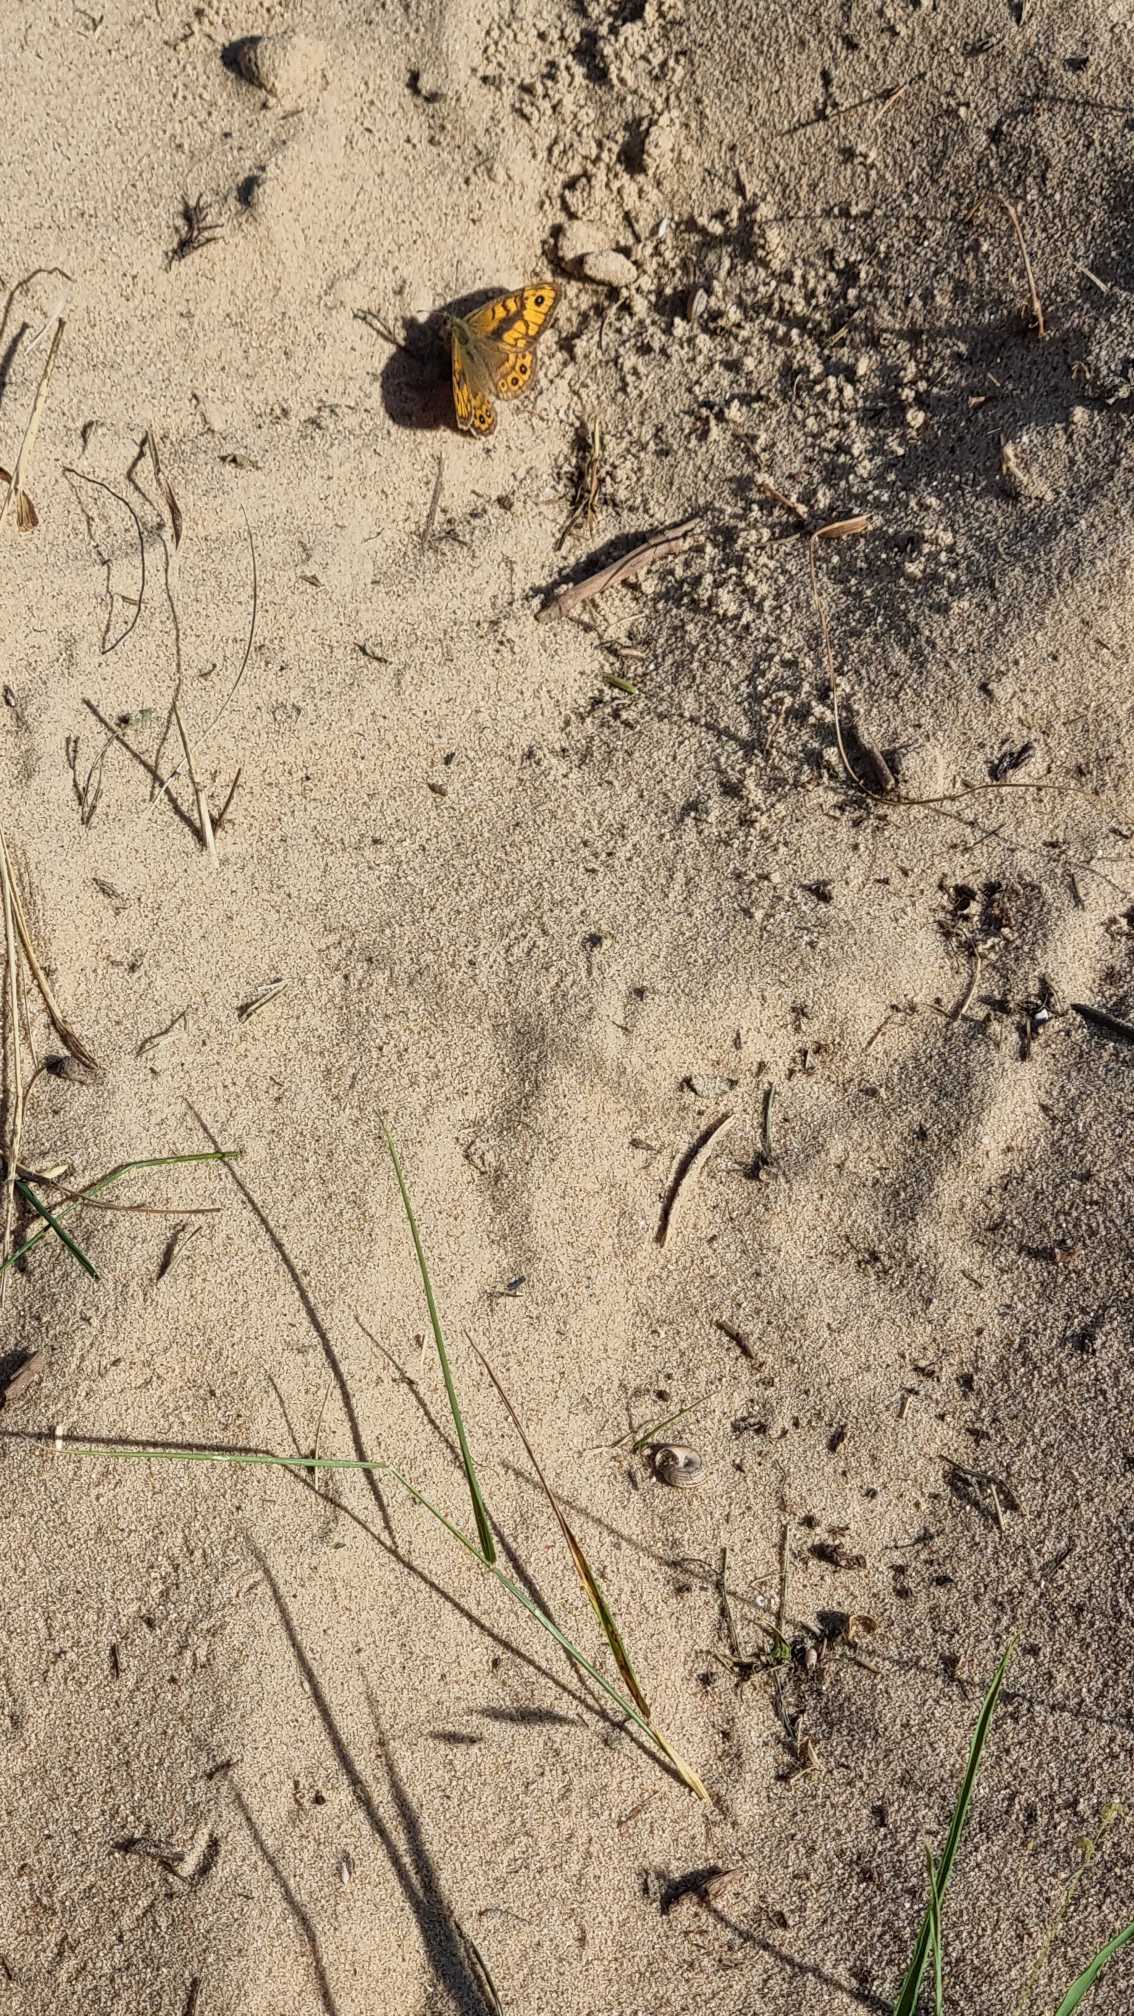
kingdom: Animalia
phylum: Arthropoda
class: Insecta
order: Lepidoptera
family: Nymphalidae
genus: Pararge
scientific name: Pararge Lasiommata megera
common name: Vejrandøje
